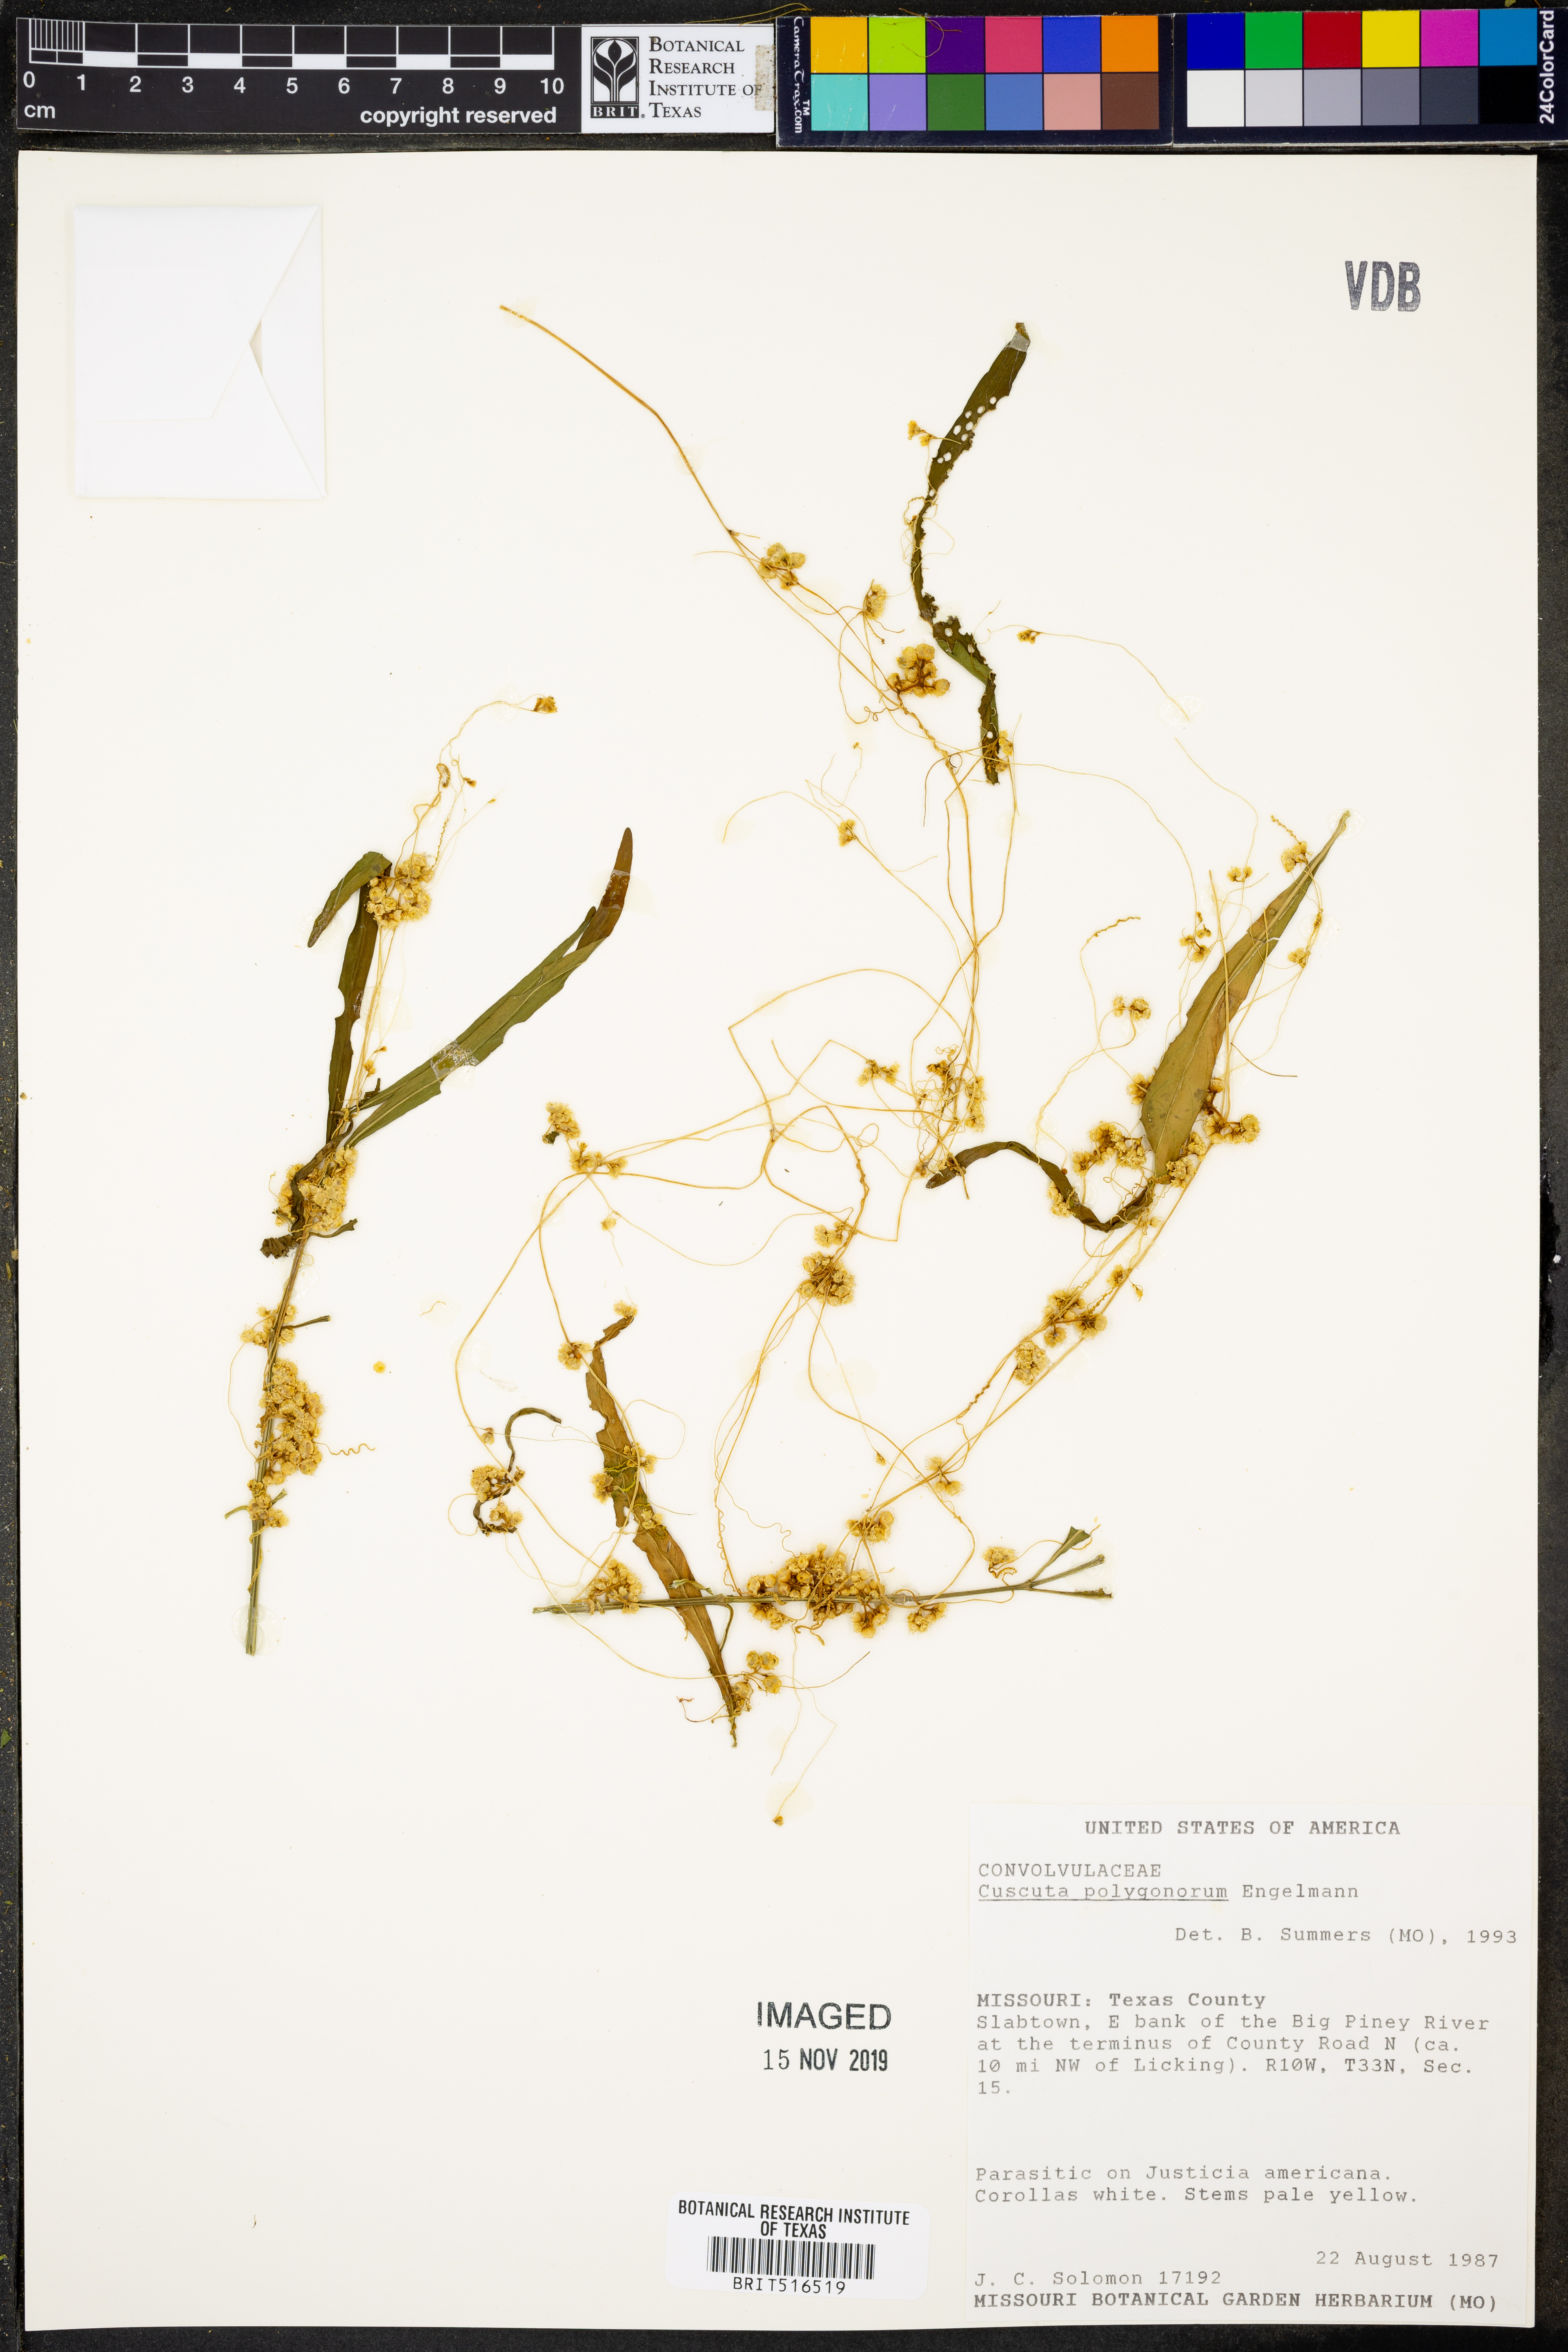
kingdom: Plantae
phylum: Tracheophyta
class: Magnoliopsida
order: Solanales
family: Convolvulaceae
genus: Cuscuta
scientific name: Cuscuta polygonorum
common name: Polygonum dodder
